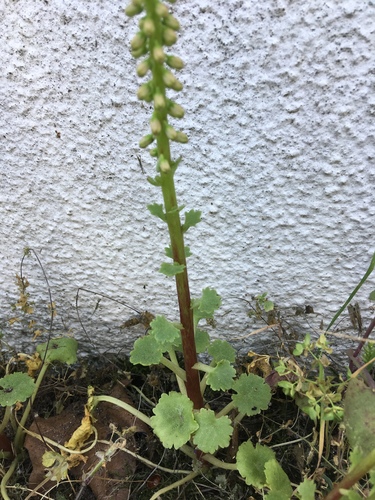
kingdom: Plantae
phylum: Tracheophyta
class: Magnoliopsida
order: Saxifragales
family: Crassulaceae
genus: Umbilicus
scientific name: Umbilicus rupestris
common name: Navelwort
